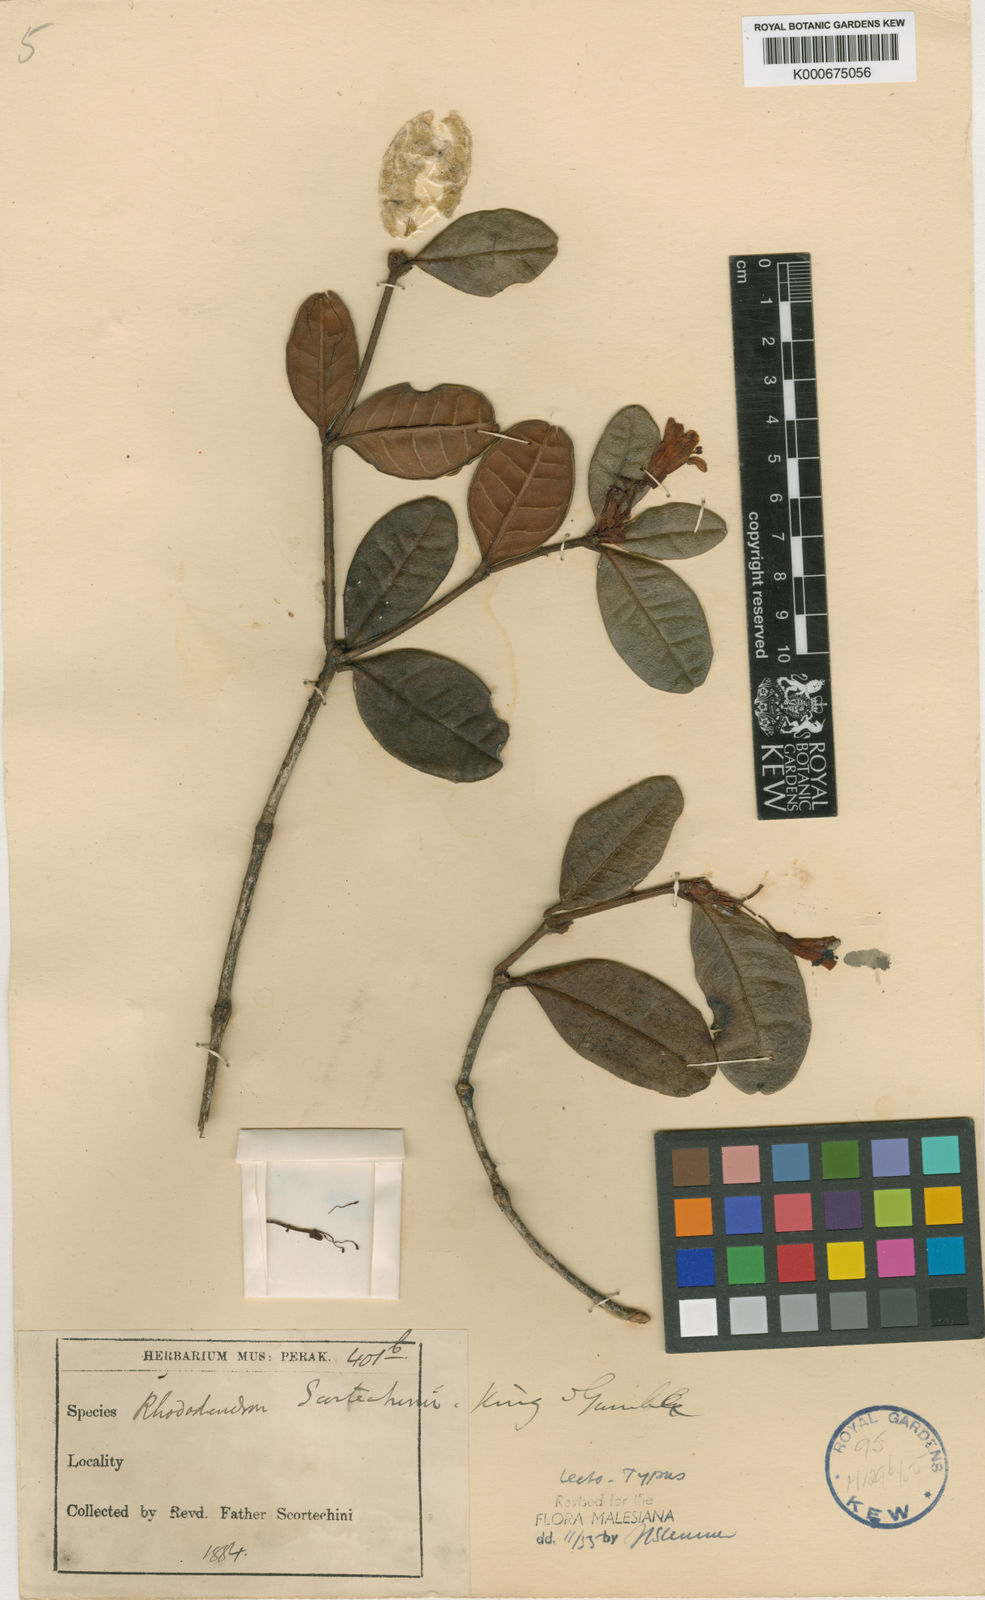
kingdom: Plantae
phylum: Tracheophyta
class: Magnoliopsida
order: Ericales
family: Ericaceae
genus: Rhododendron
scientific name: Rhododendron scortechinii
